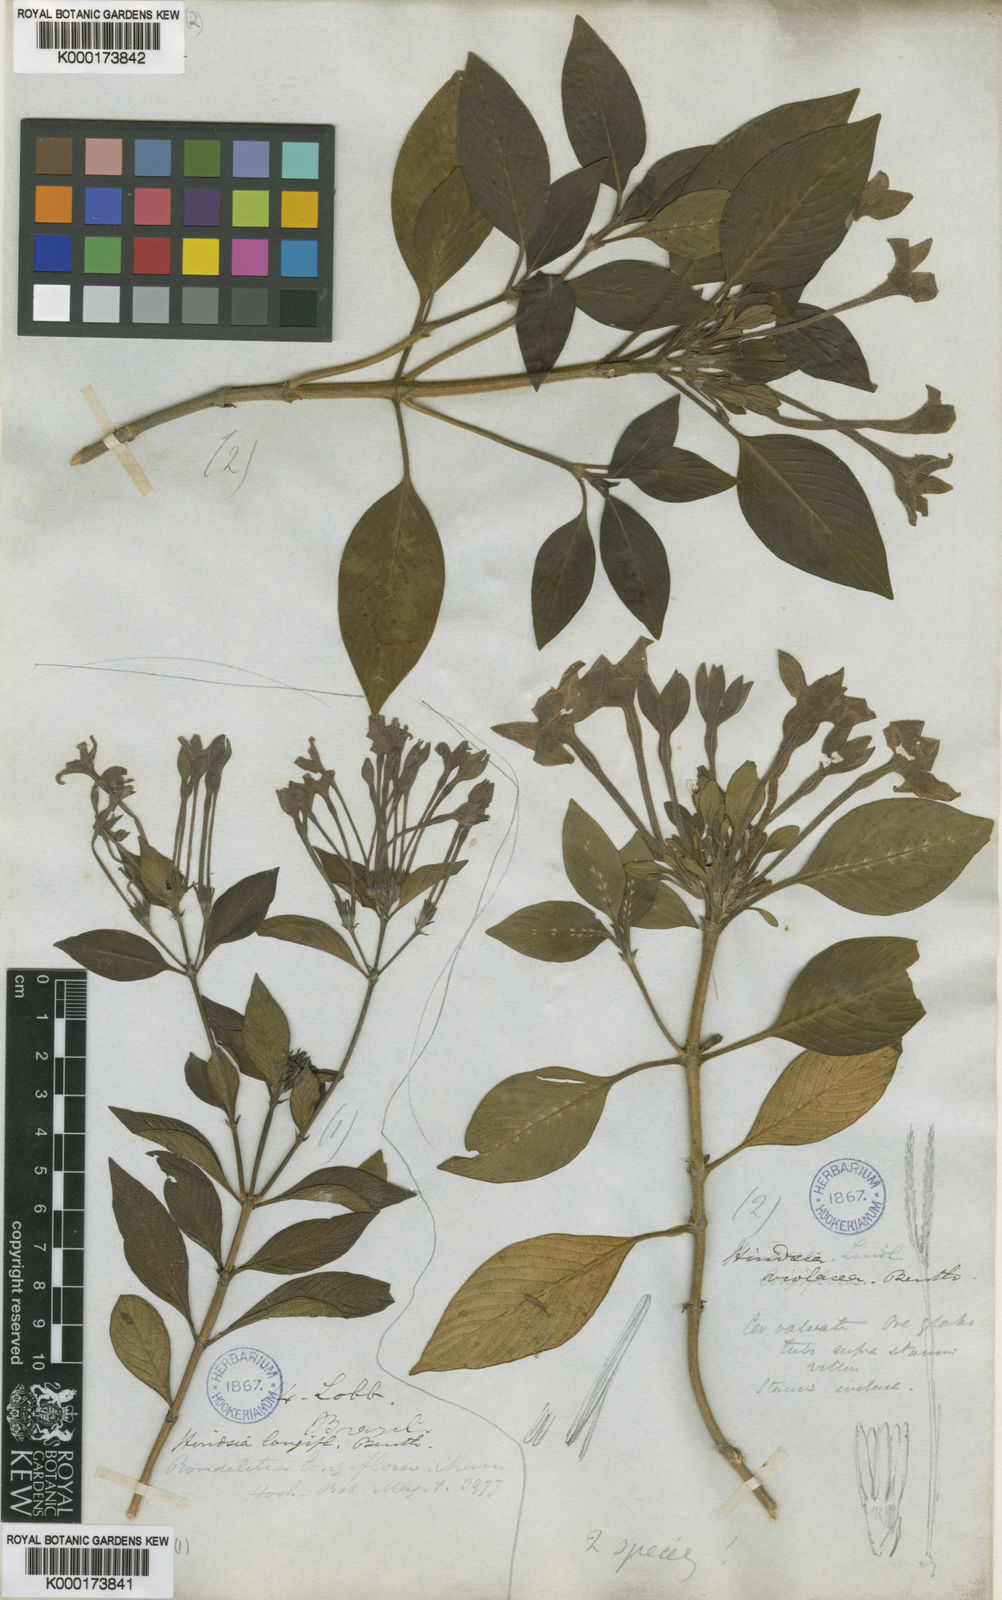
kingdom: Plantae
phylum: Tracheophyta
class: Magnoliopsida
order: Gentianales
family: Rubiaceae
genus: Hindsia
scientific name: Hindsia violacea
